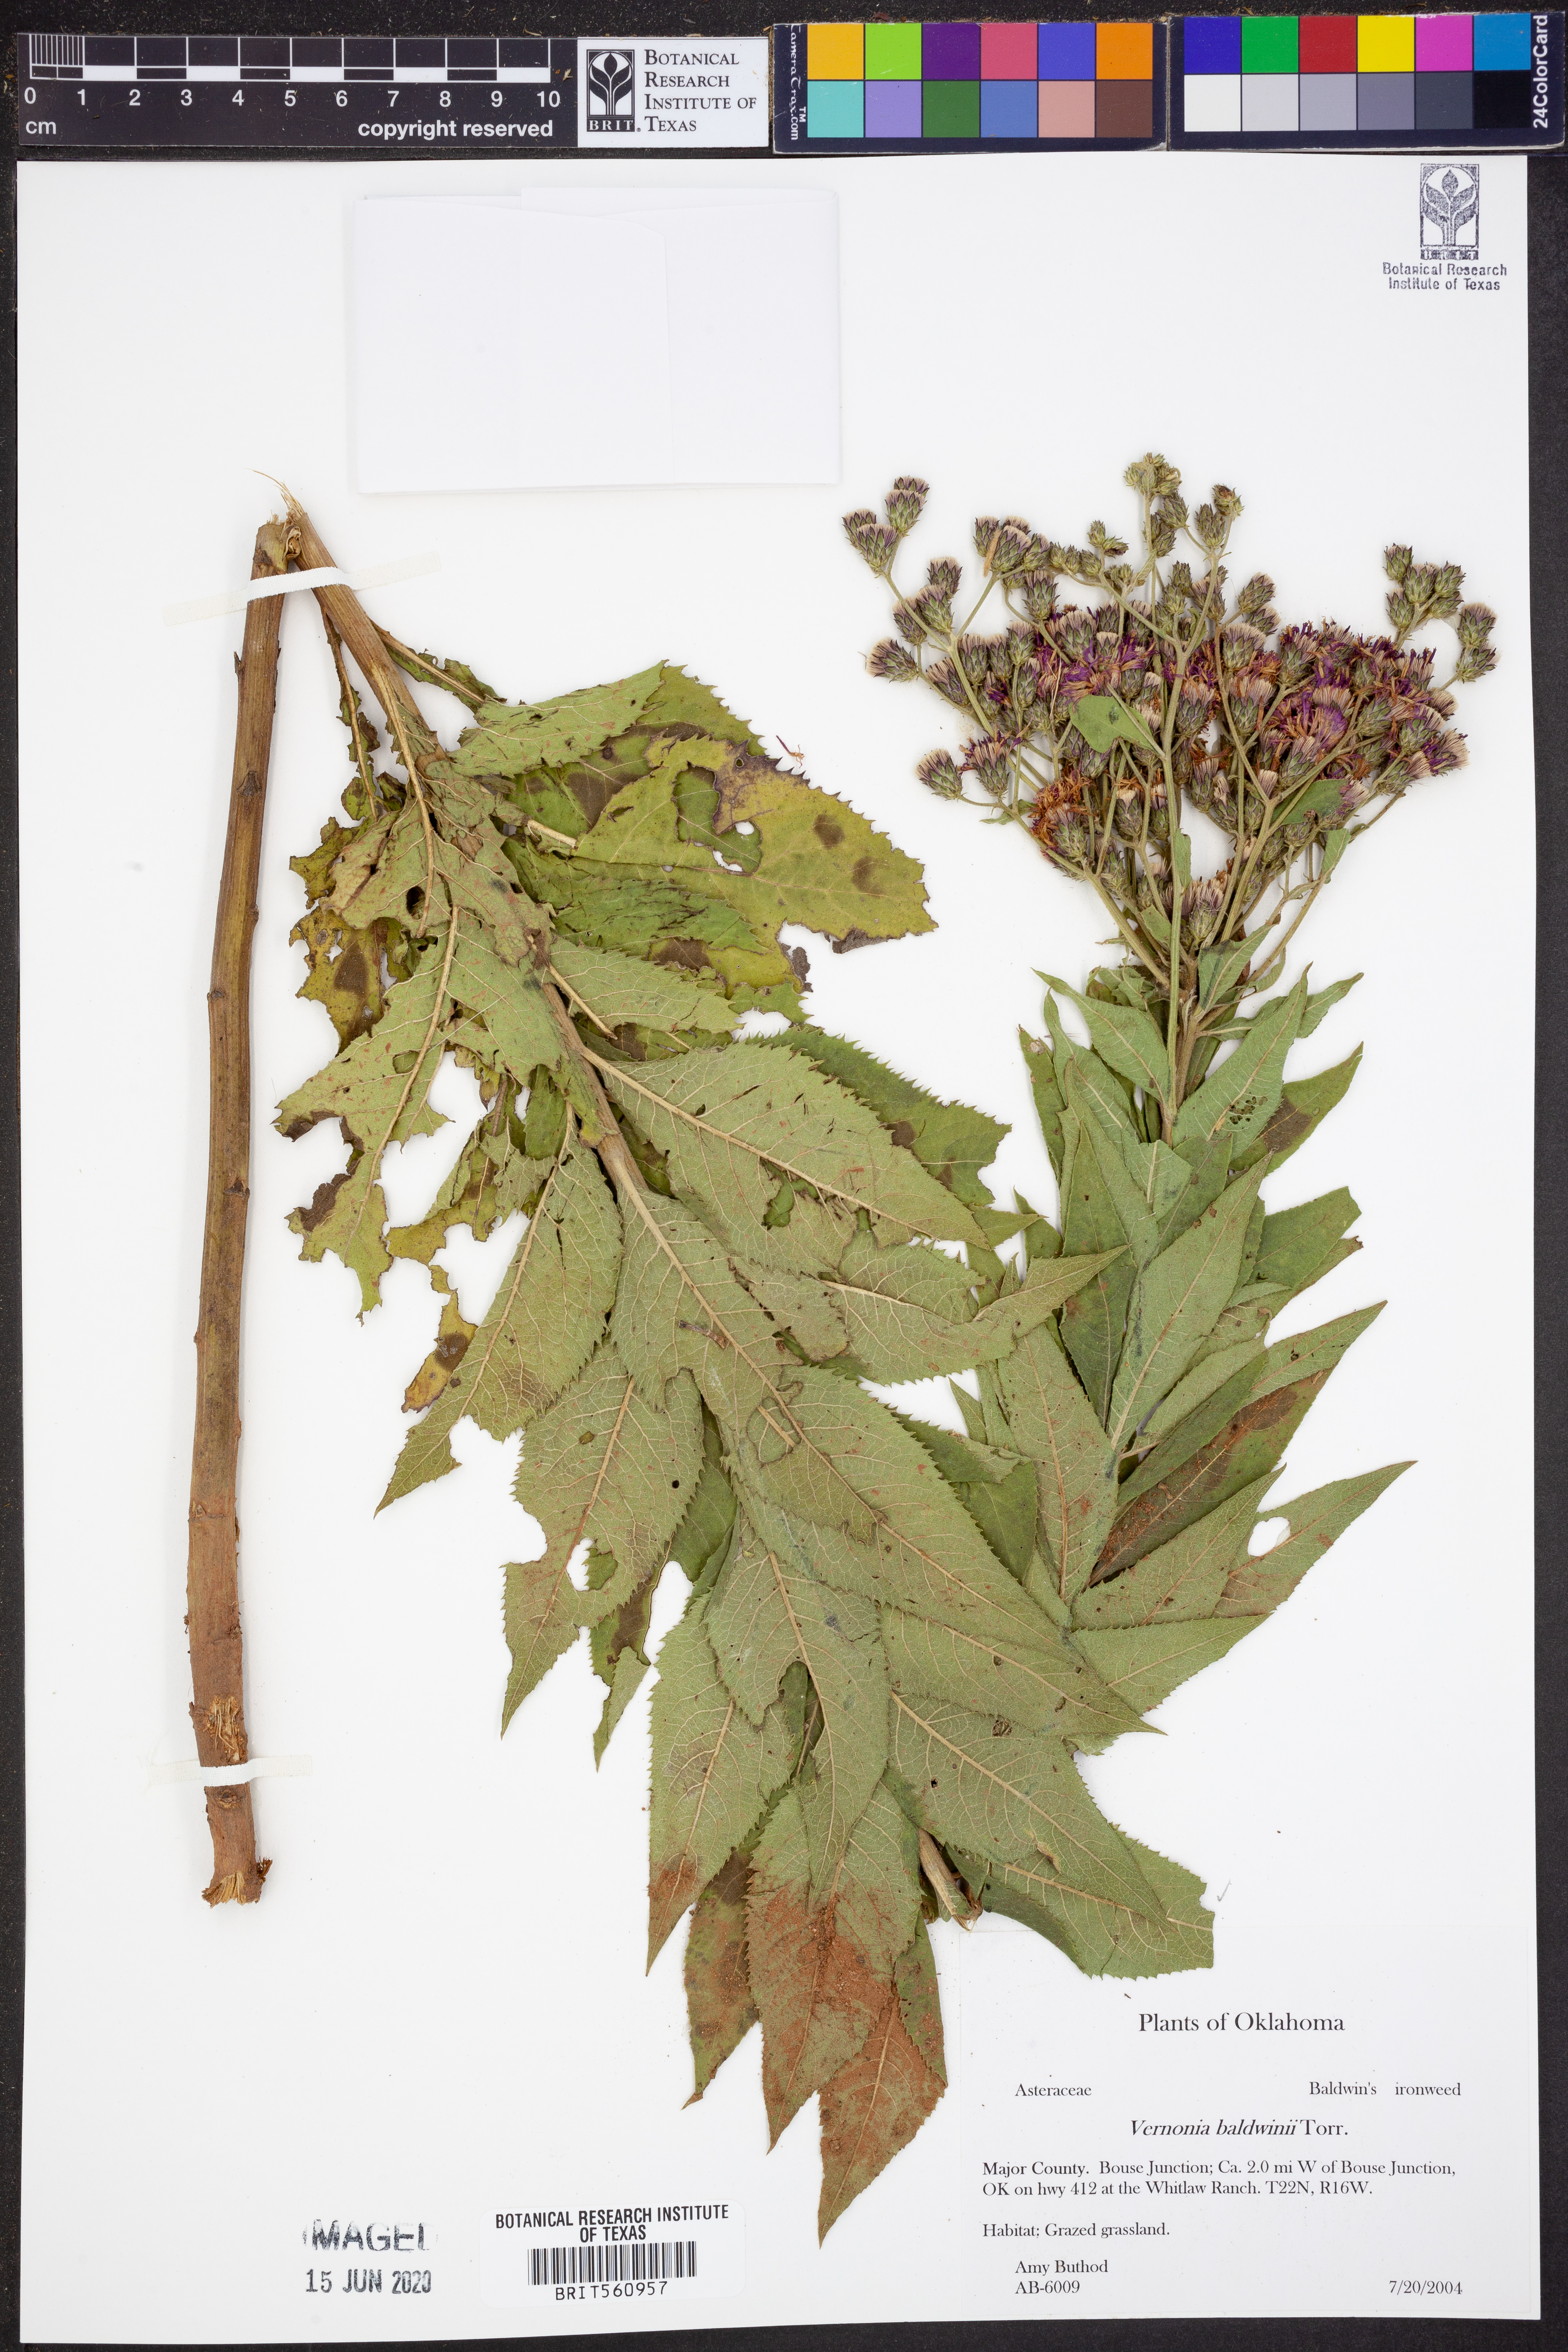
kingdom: Plantae
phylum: Tracheophyta
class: Magnoliopsida
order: Asterales
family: Asteraceae
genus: Vernonia
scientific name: Vernonia baldwinii
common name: Western ironweed
